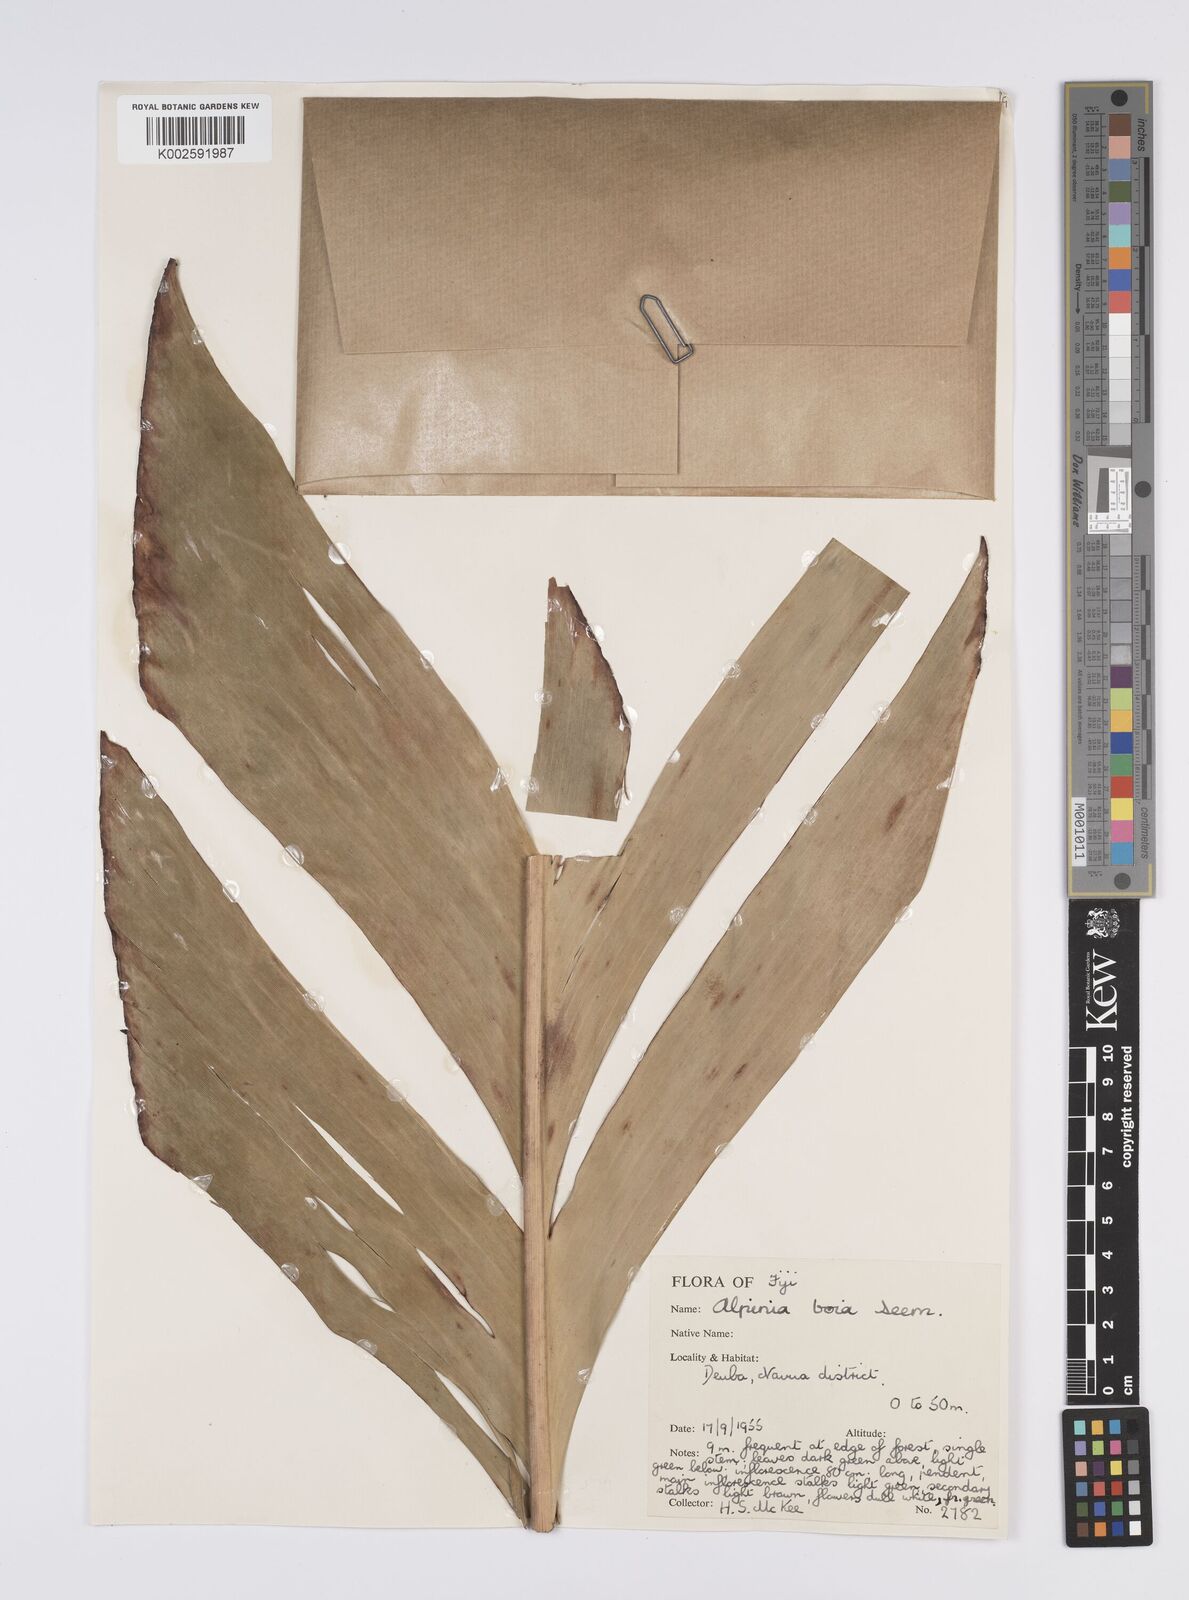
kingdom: Plantae
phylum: Tracheophyta
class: Liliopsida
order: Zingiberales
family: Zingiberaceae
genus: Alpinia
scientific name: Alpinia boia
